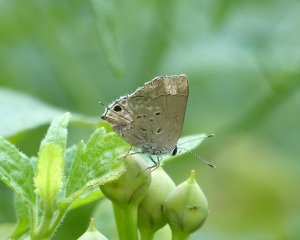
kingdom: Animalia
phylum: Arthropoda
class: Insecta
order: Lepidoptera
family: Lycaenidae
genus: Callicista
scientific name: Callicista columella
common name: Mallow Scrub-Hairstreak
